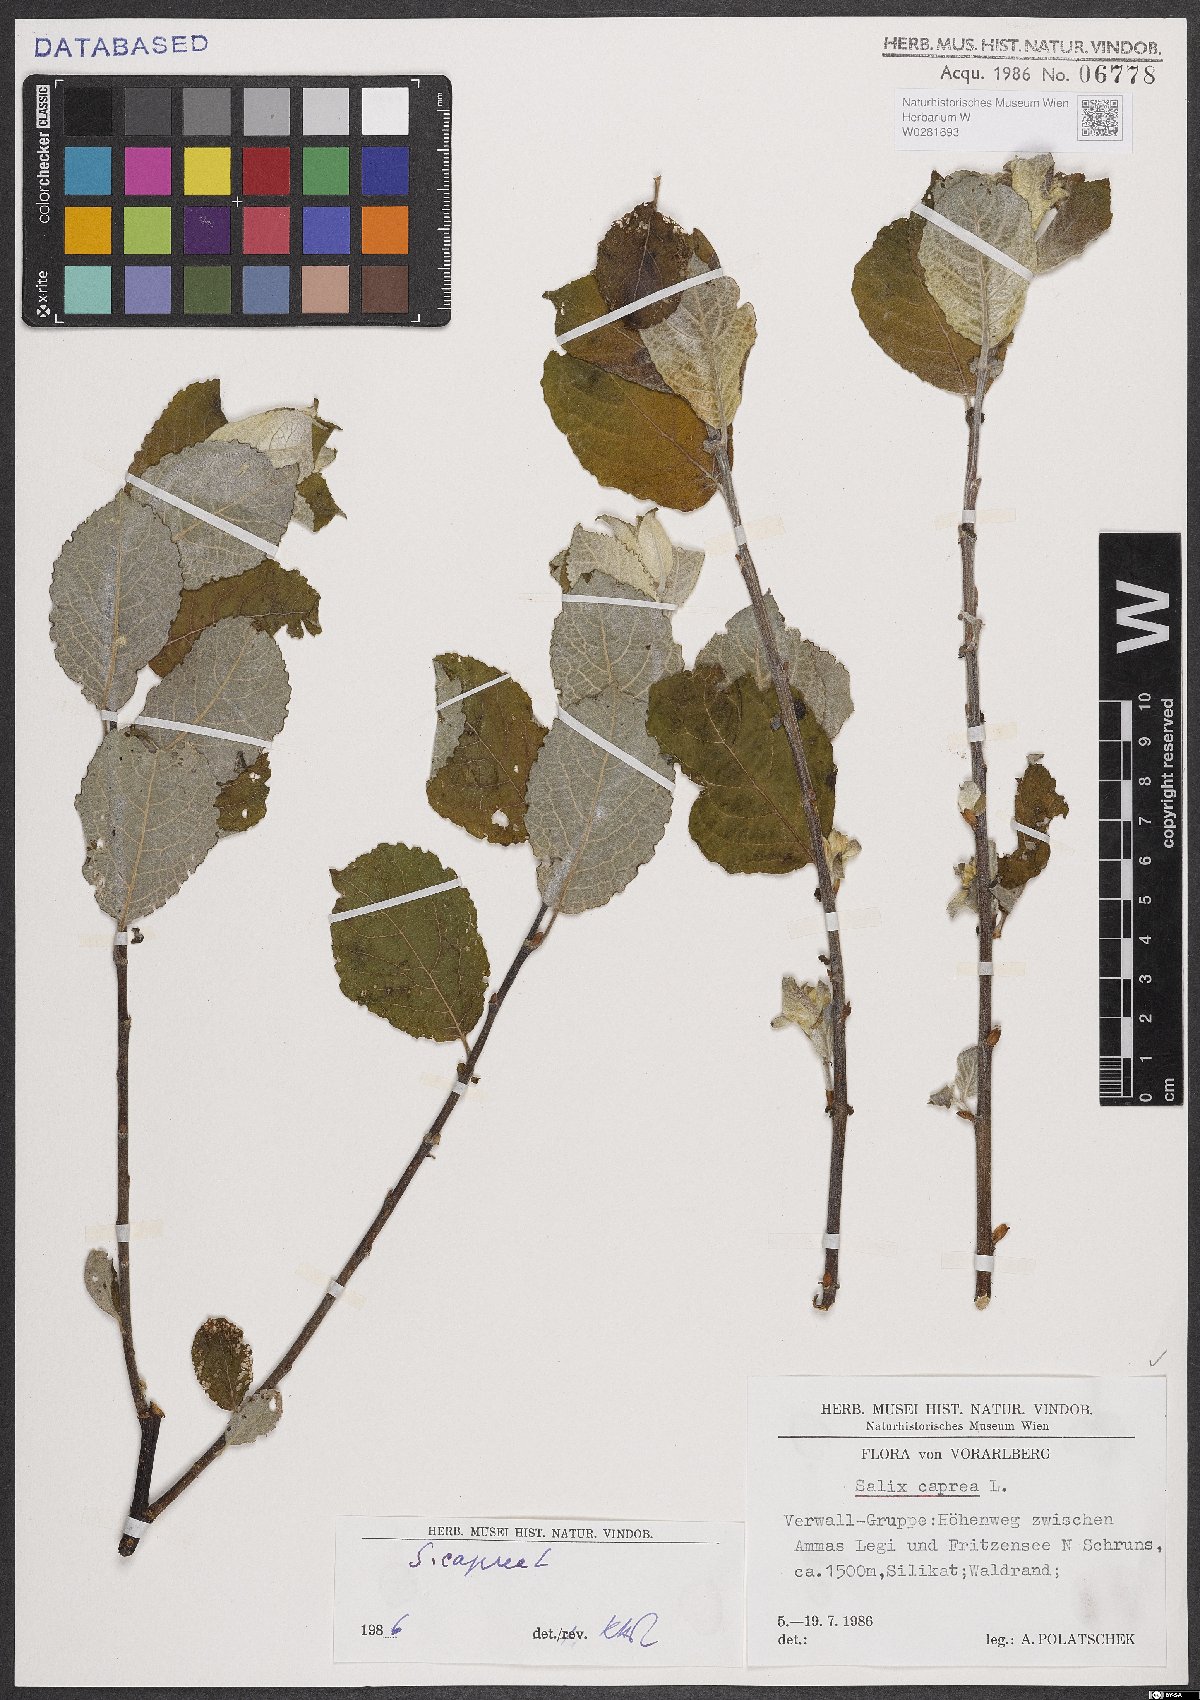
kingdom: Plantae
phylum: Tracheophyta
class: Magnoliopsida
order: Malpighiales
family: Salicaceae
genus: Salix
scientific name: Salix caprea
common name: Goat willow
